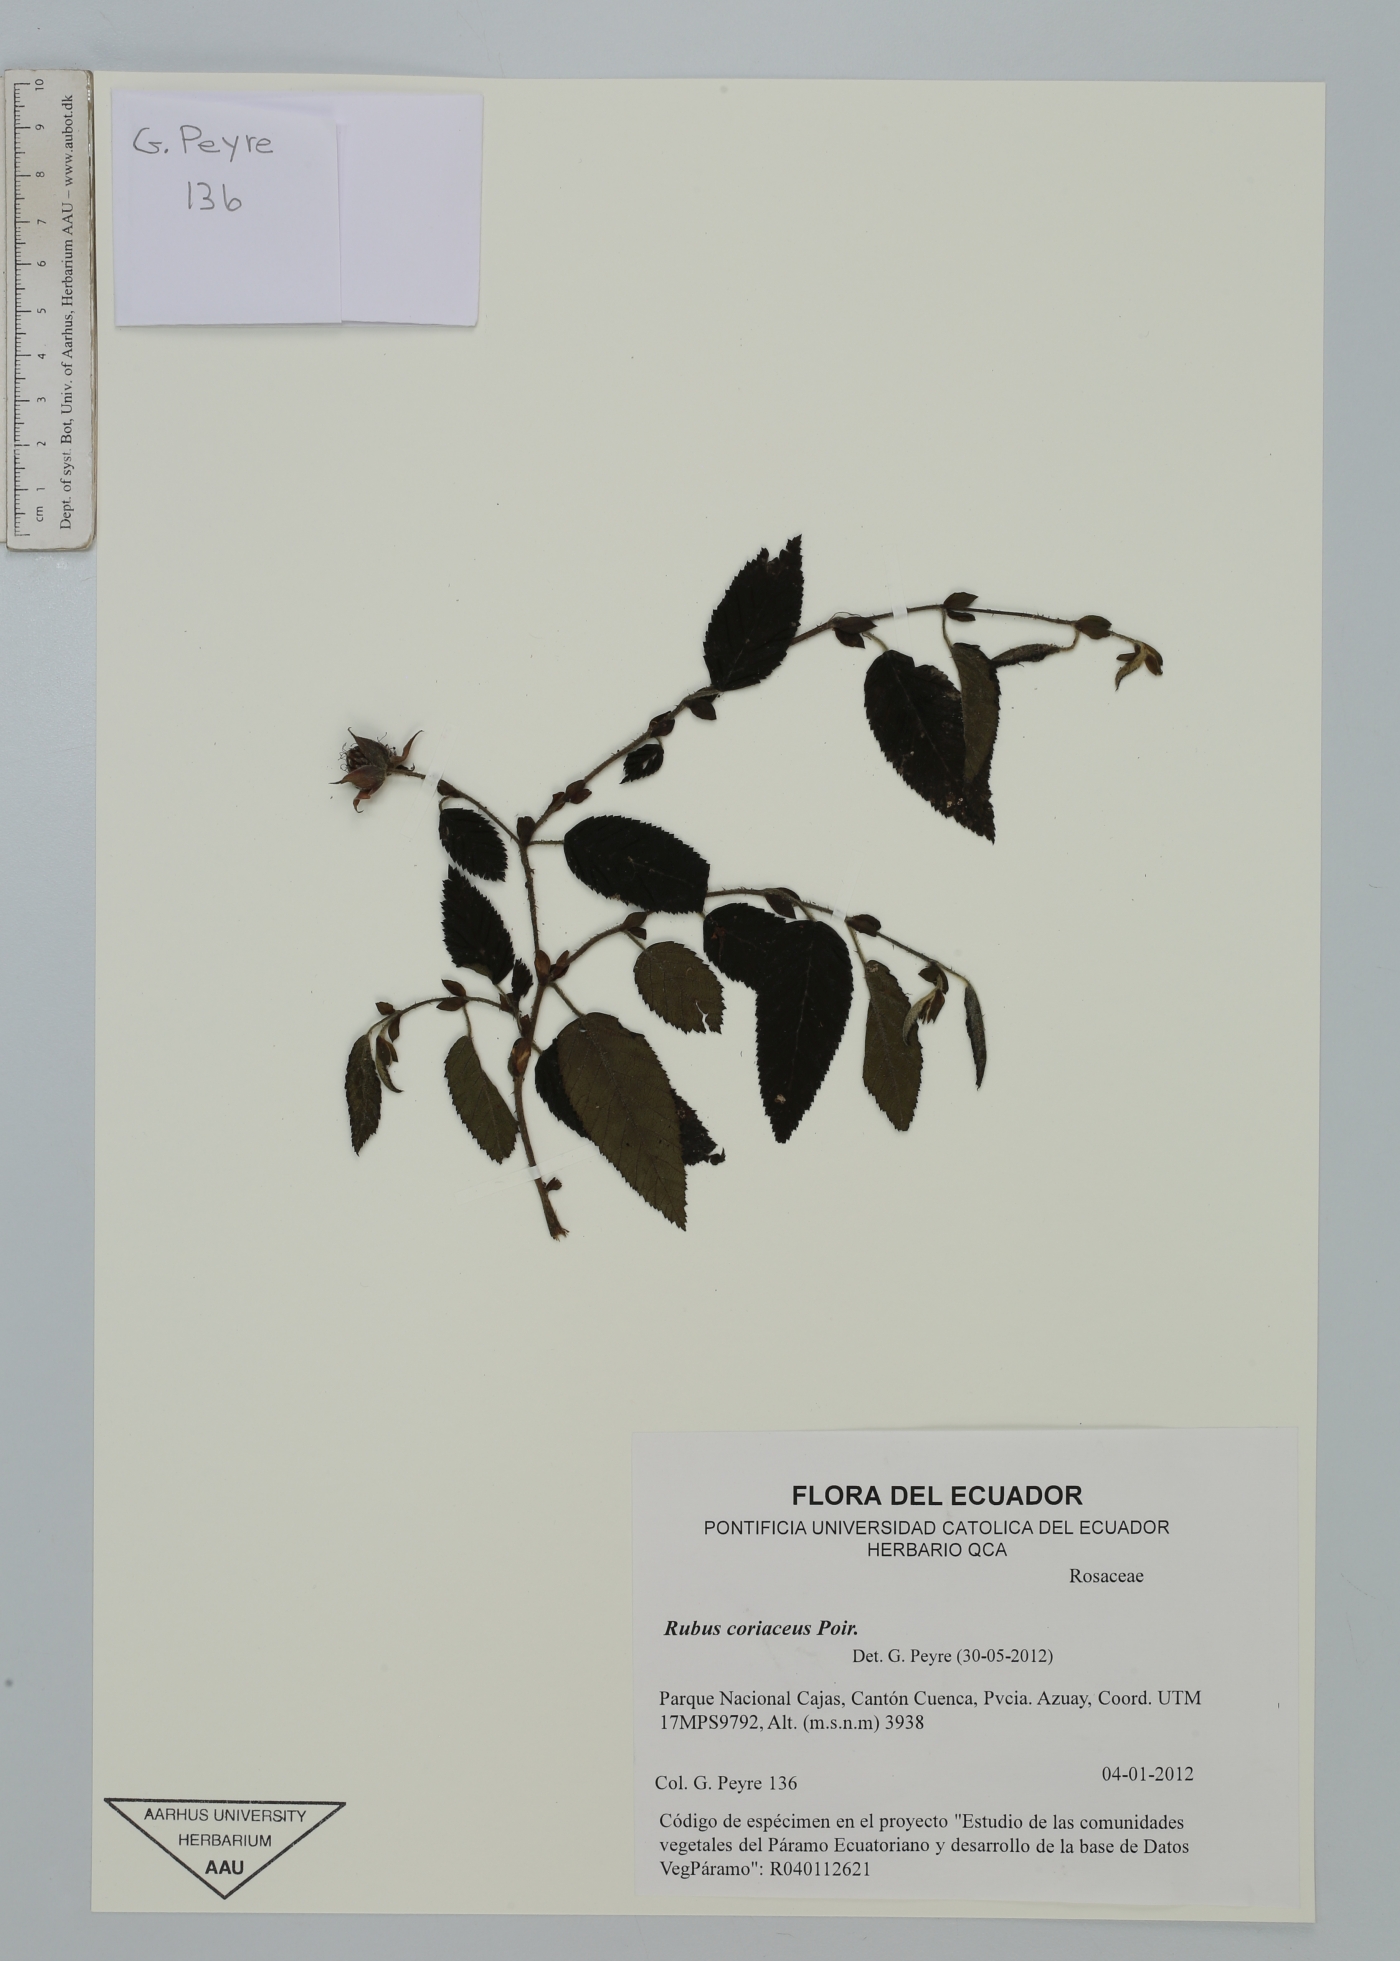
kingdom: Plantae
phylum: Tracheophyta
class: Magnoliopsida
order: Rosales
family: Rosaceae
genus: Rubus
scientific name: Rubus coriaceus
